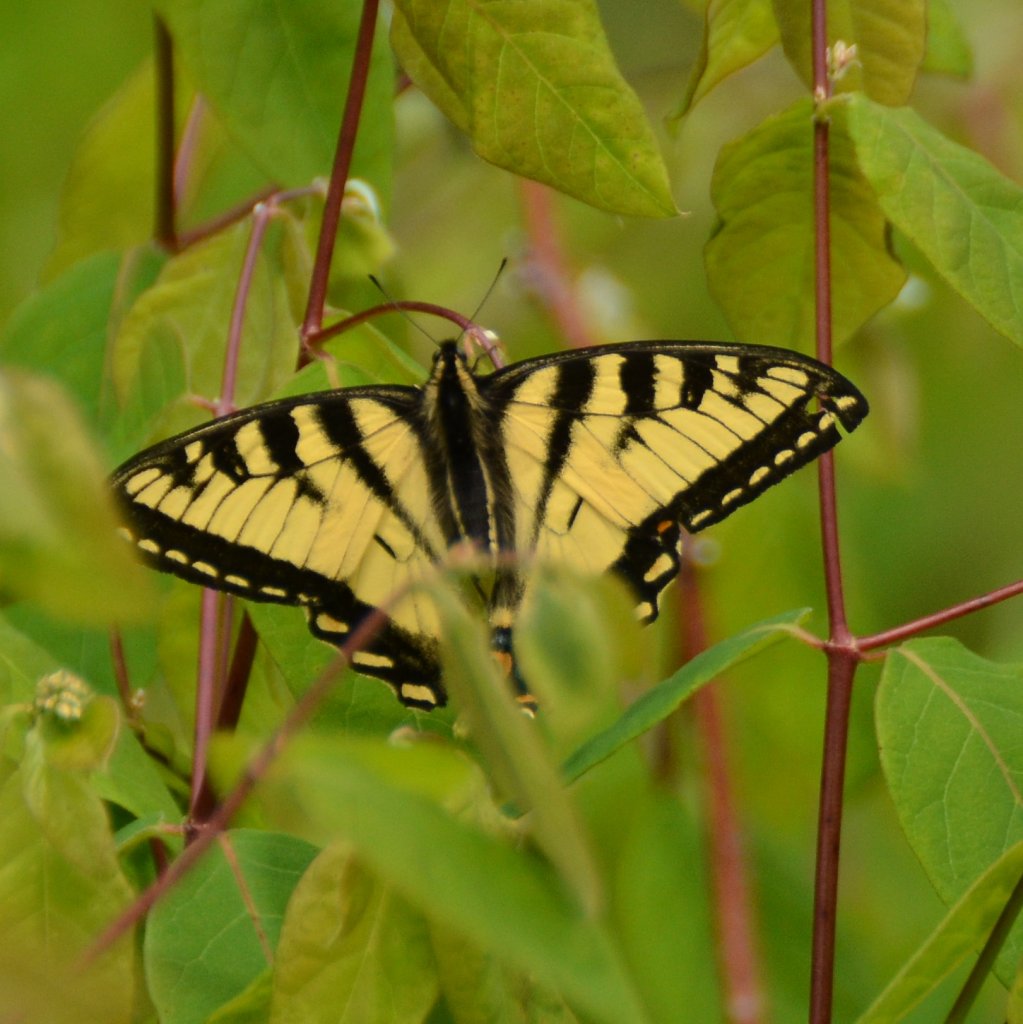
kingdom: Animalia
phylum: Arthropoda
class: Insecta
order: Lepidoptera
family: Papilionidae
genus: Pterourus
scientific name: Pterourus canadensis
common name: Canadian Tiger Swallowtail
